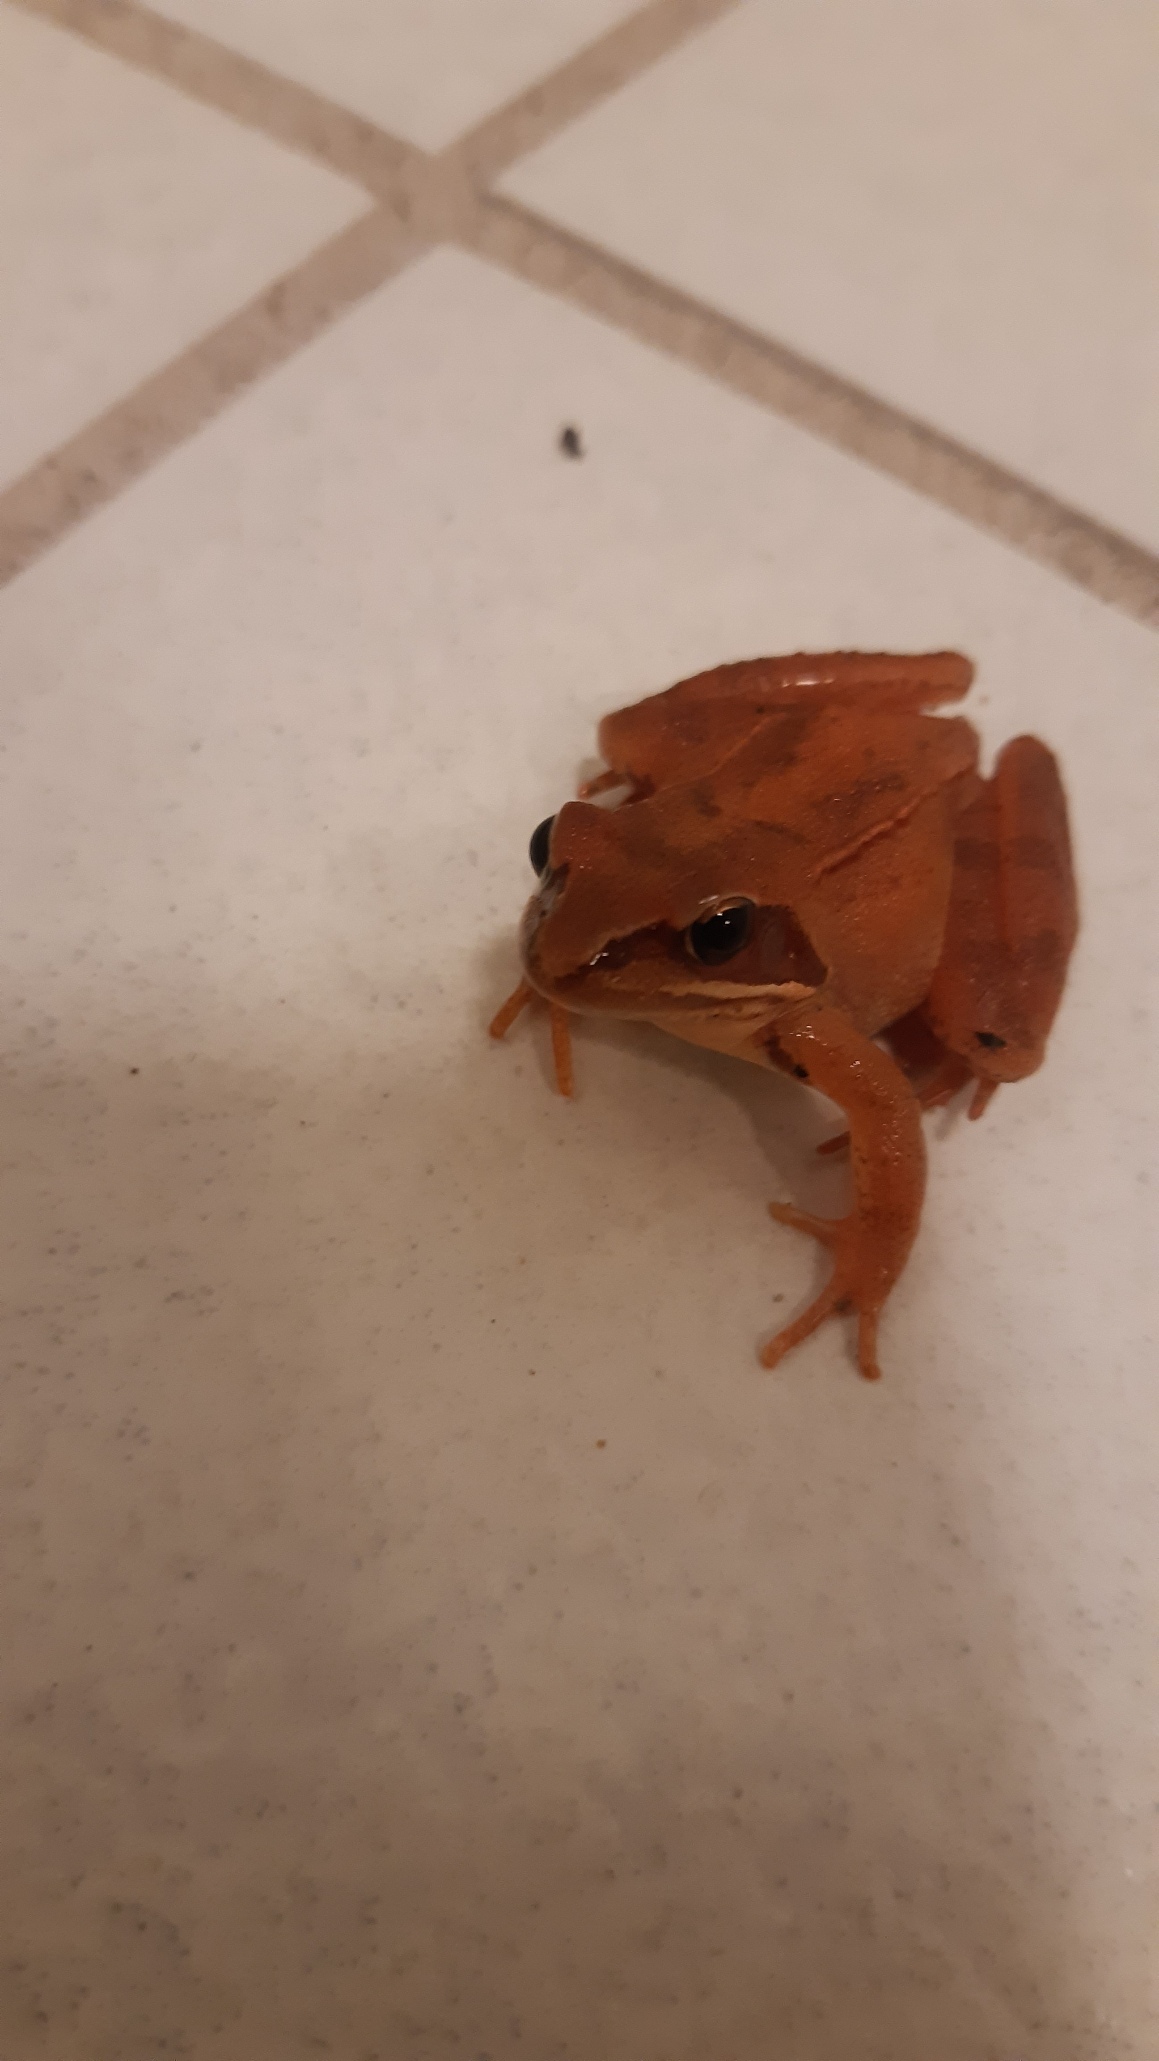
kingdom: Animalia
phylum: Chordata
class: Amphibia
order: Anura
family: Ranidae
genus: Rana
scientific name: Rana dalmatina
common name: Springfrø
